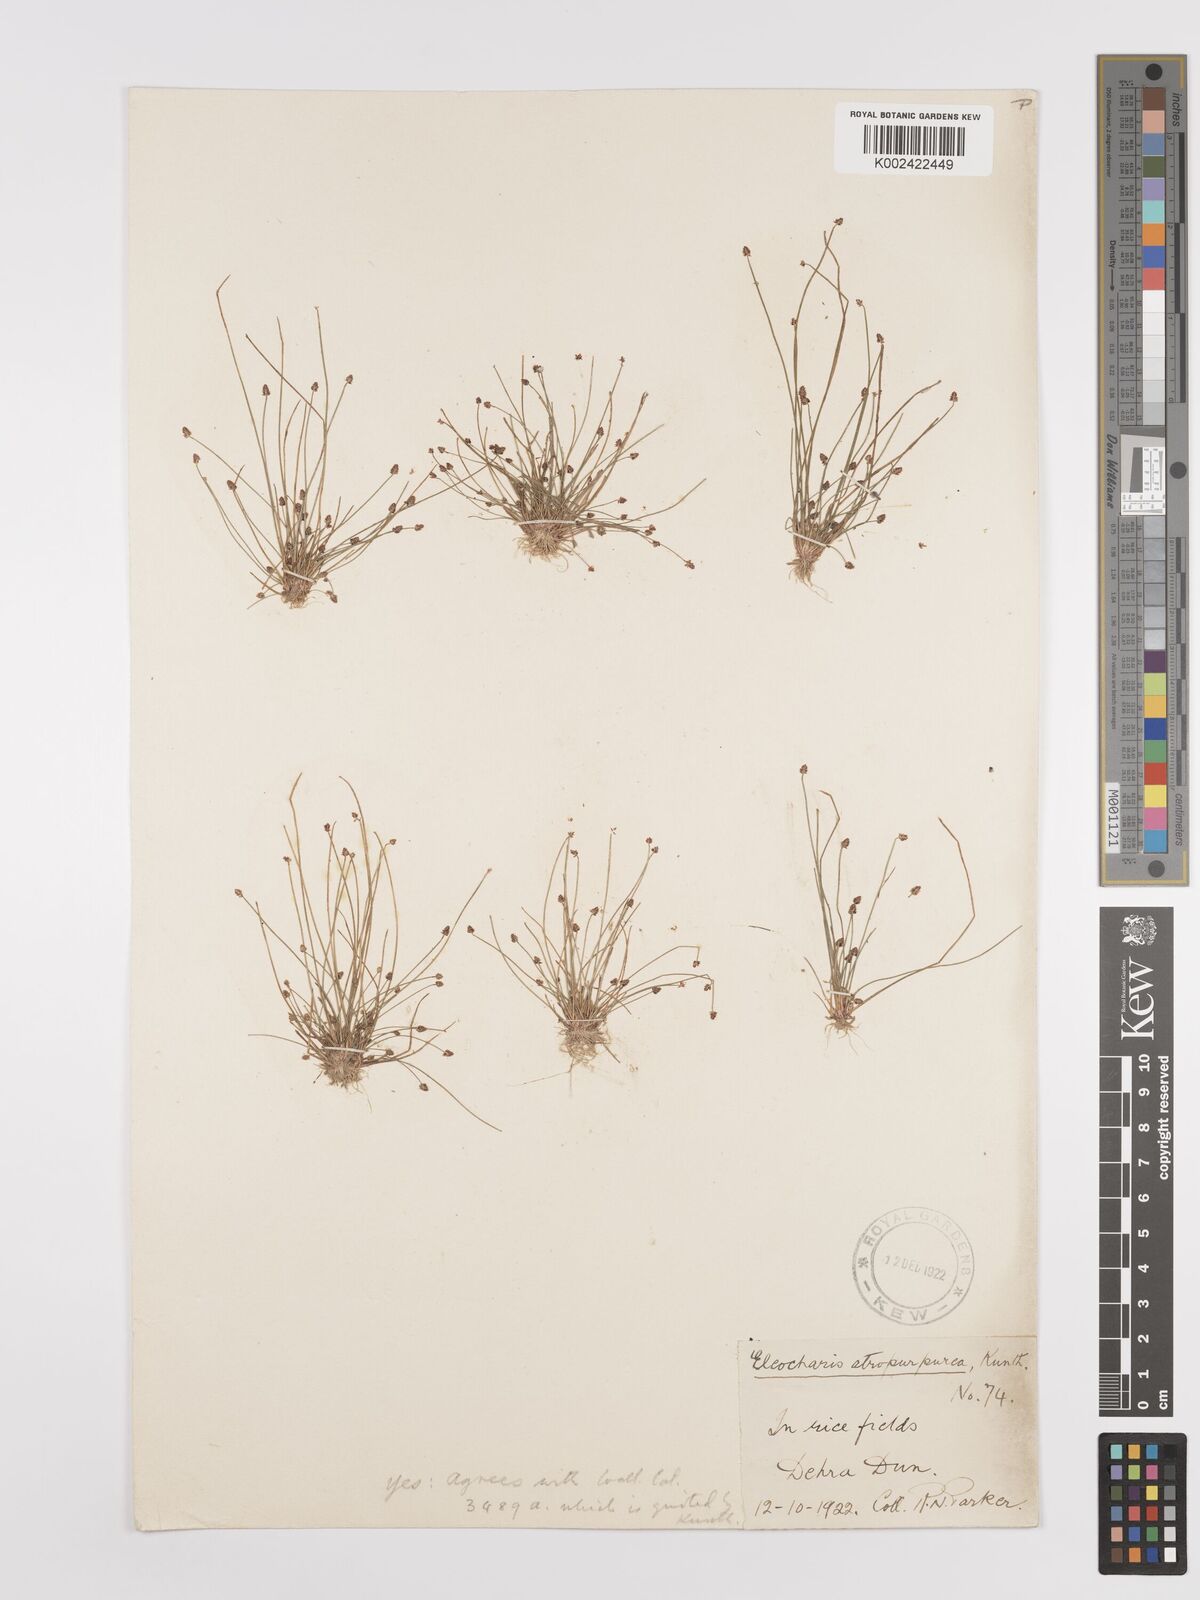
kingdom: Plantae
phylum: Tracheophyta
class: Liliopsida
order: Poales
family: Cyperaceae
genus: Eleocharis
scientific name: Eleocharis atropurpurea
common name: Purple spikerush
